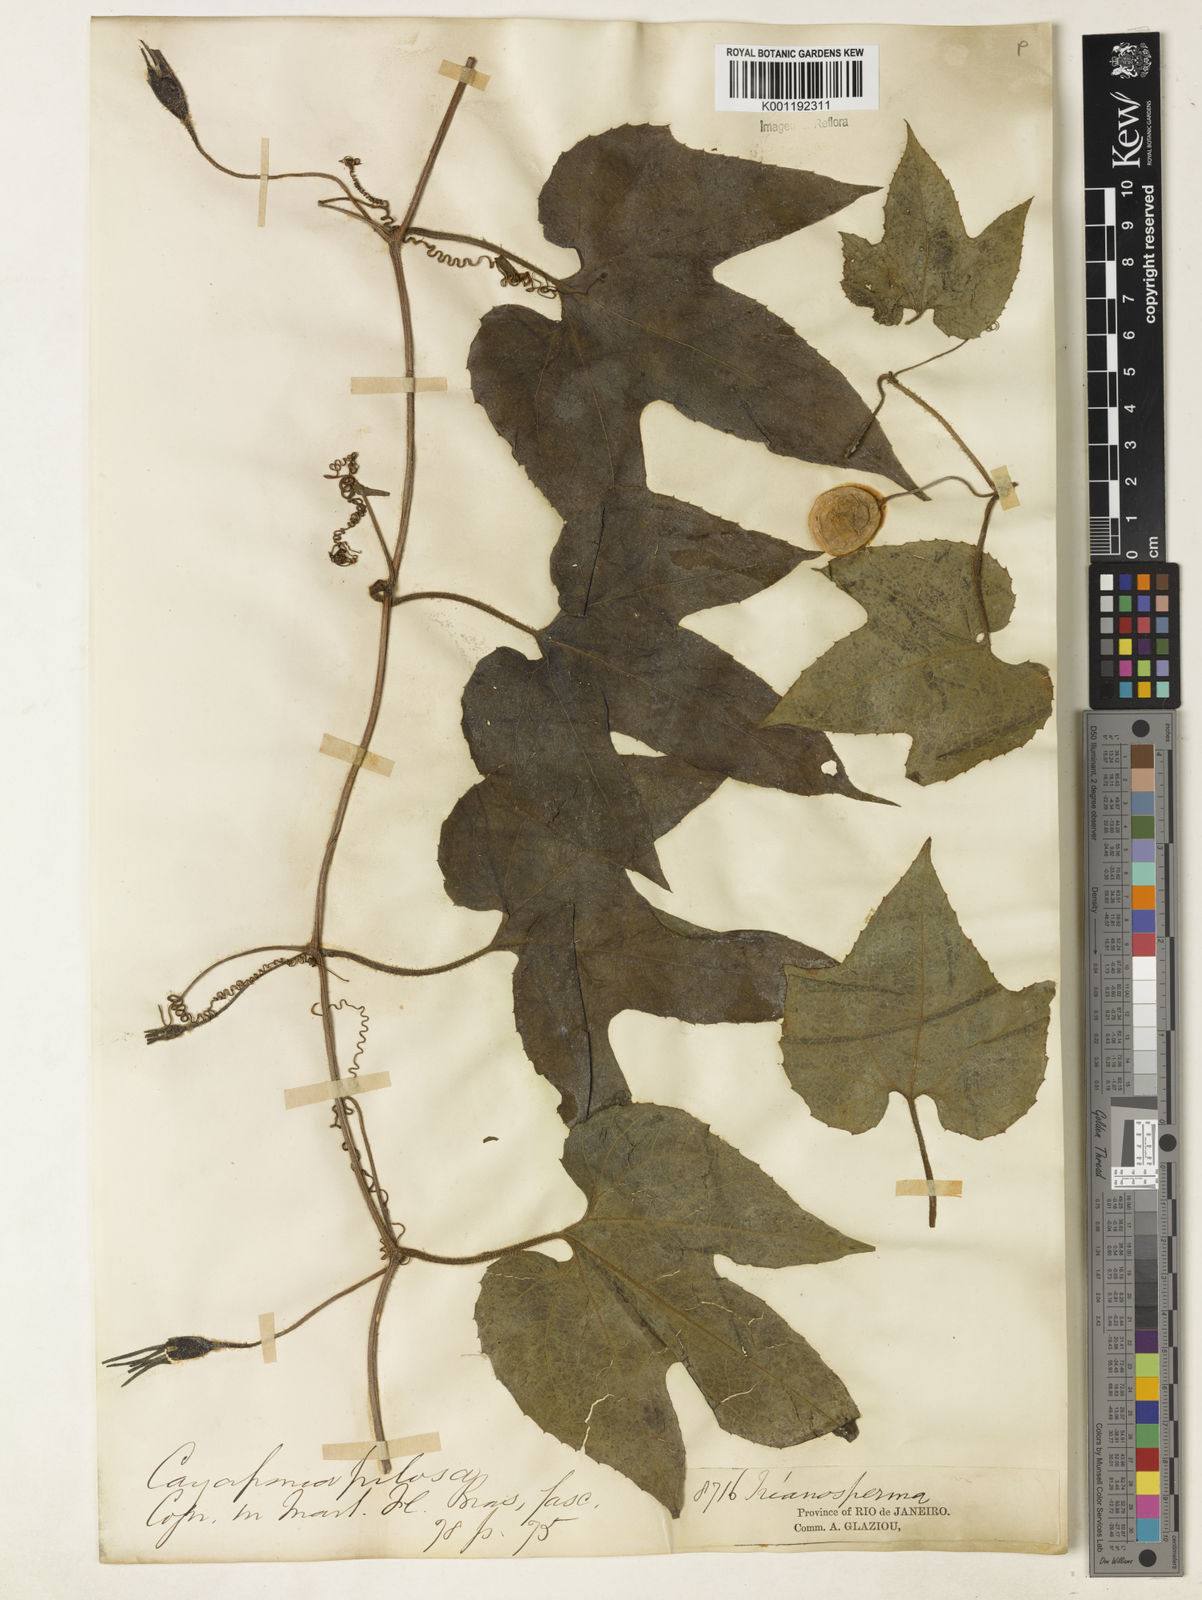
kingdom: Plantae
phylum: Tracheophyta
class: Magnoliopsida
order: Cucurbitales
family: Cucurbitaceae
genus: Cayaponia
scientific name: Cayaponia pilosa
